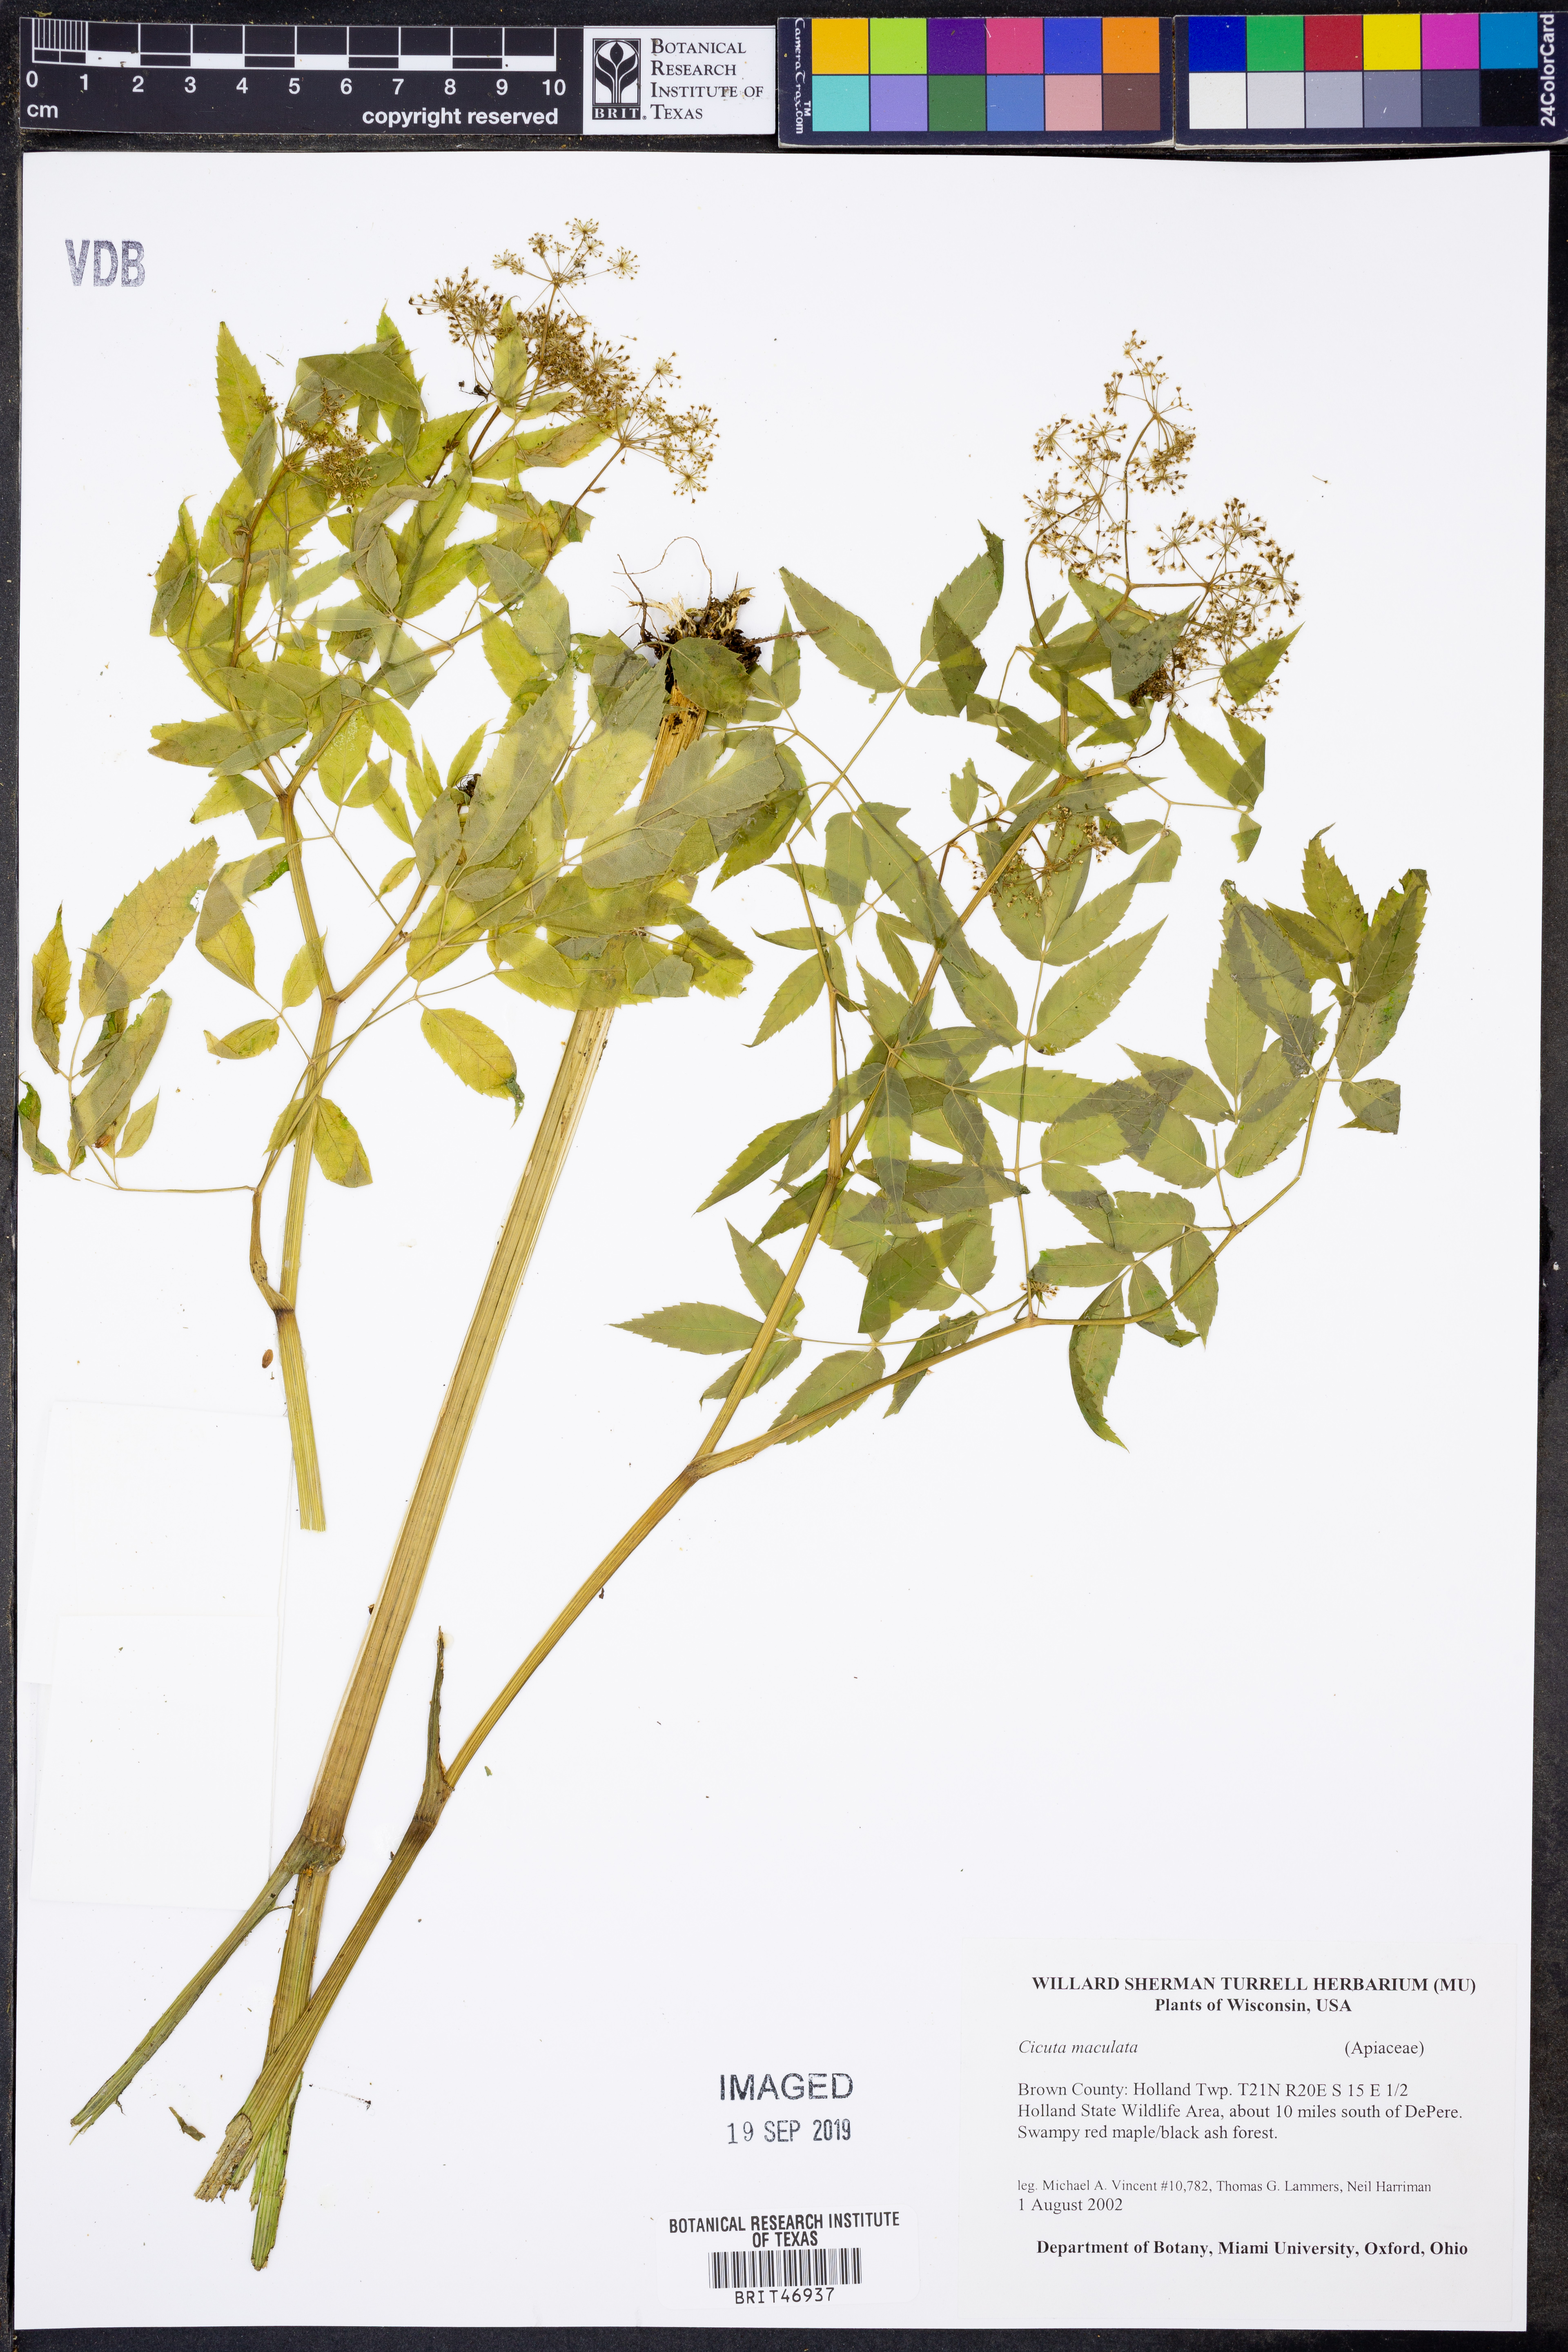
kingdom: Plantae
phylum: Tracheophyta
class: Magnoliopsida
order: Apiales
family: Apiaceae
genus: Cicuta
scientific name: Cicuta maculata
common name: Spotted cowbane
